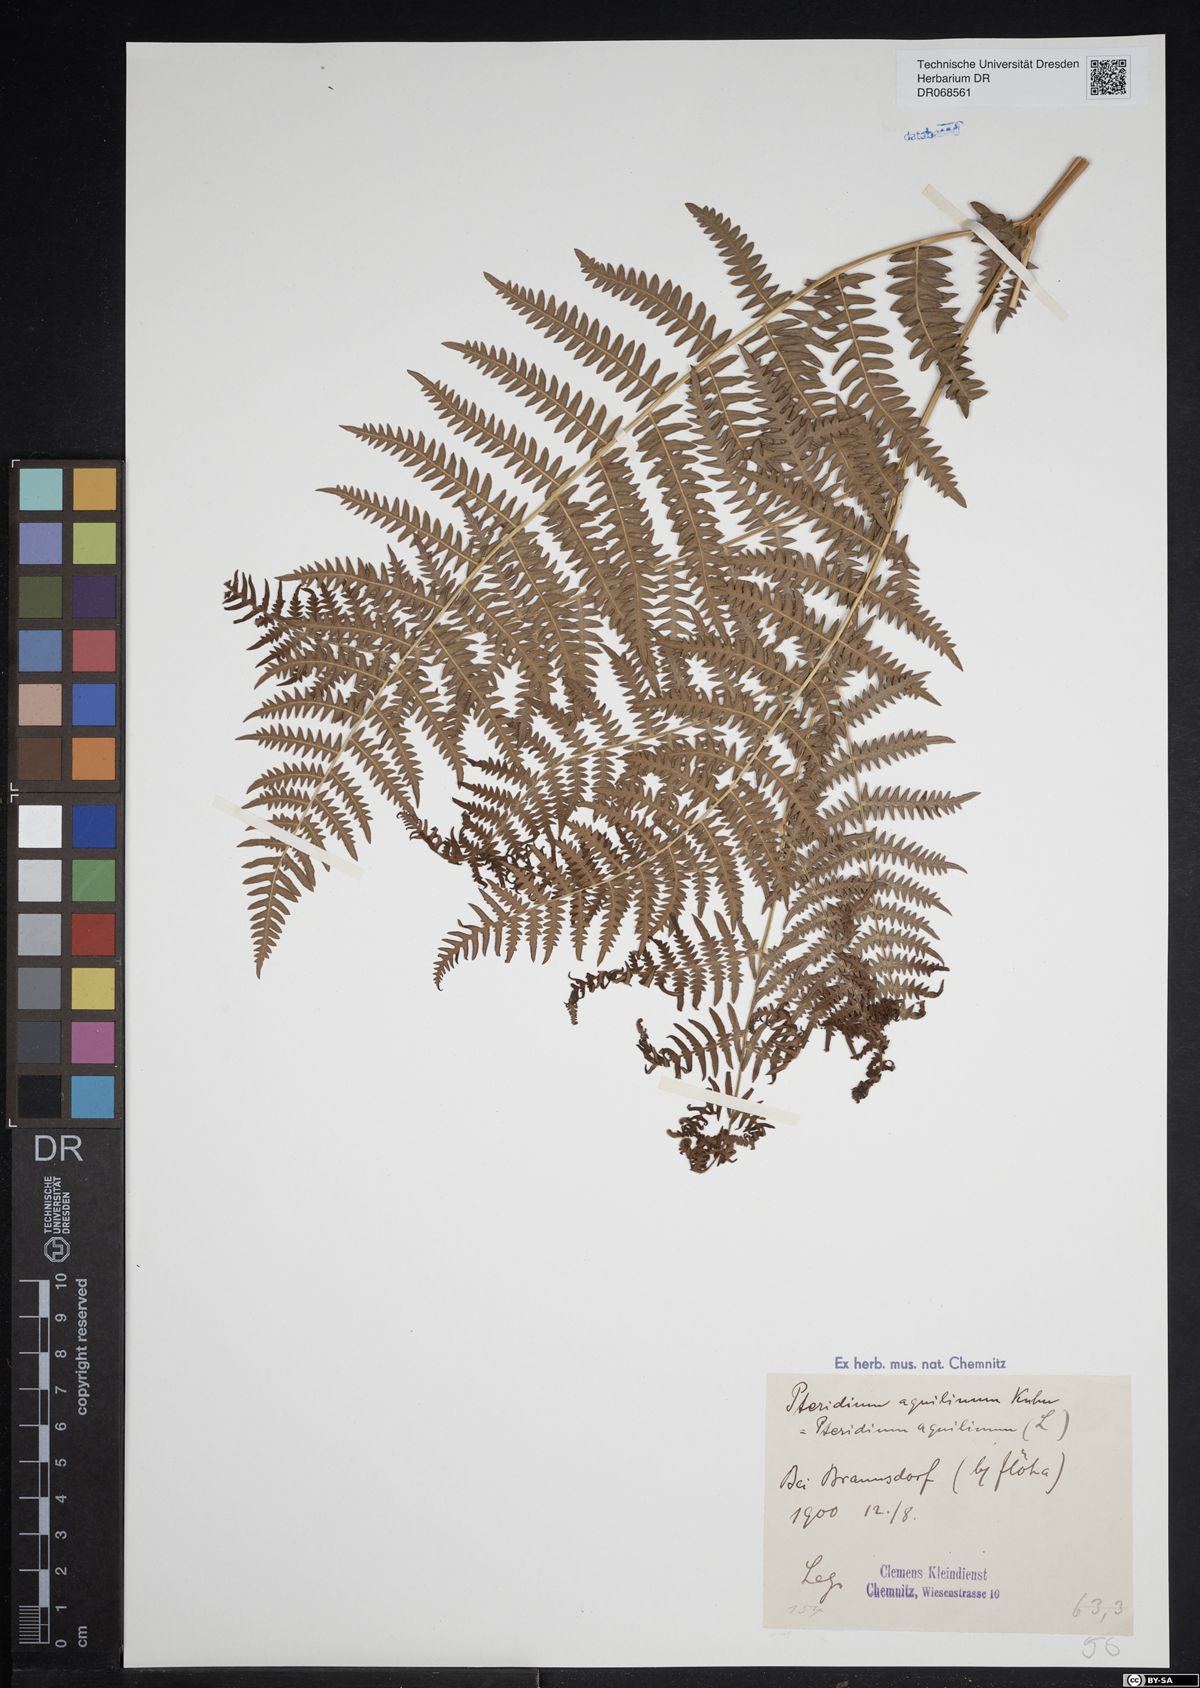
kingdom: Plantae
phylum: Tracheophyta
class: Polypodiopsida
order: Polypodiales
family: Dennstaedtiaceae
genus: Pteridium
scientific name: Pteridium aquilinum
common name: Bracken
